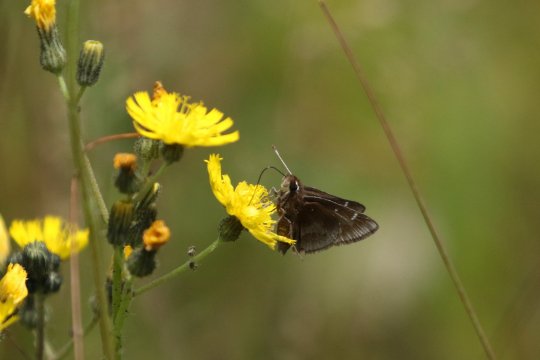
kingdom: Animalia
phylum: Arthropoda
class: Insecta
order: Lepidoptera
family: Hesperiidae
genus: Atrytonopsis
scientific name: Atrytonopsis hianna
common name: Dusted Skipper
